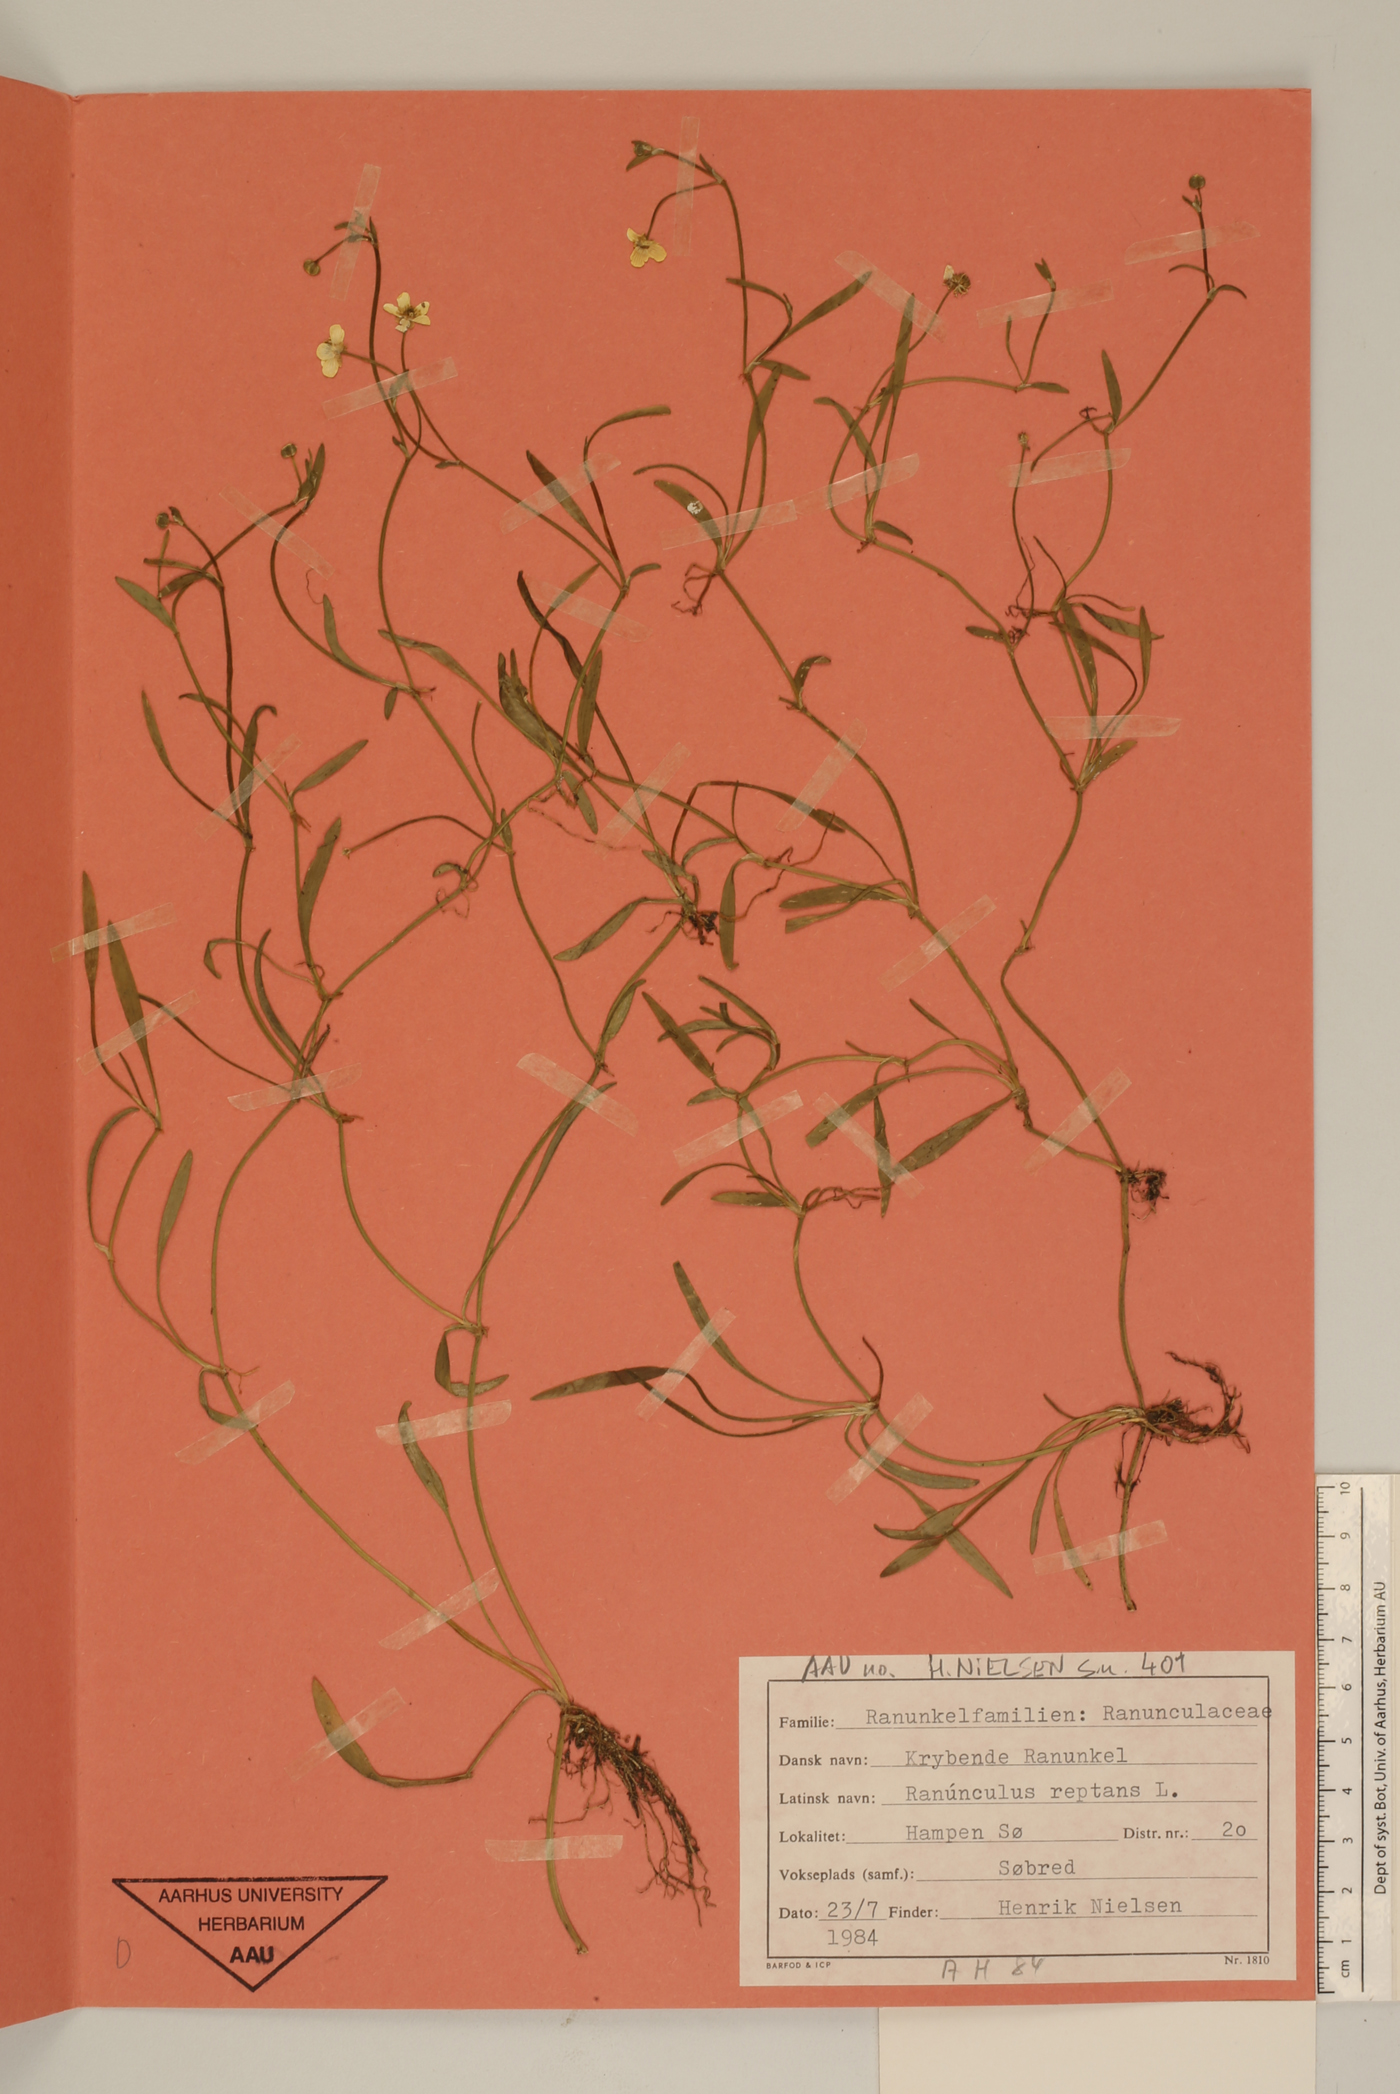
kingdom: Plantae
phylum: Tracheophyta
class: Magnoliopsida
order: Ranunculales
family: Ranunculaceae
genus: Ranunculus
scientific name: Ranunculus reptans
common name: Creeping spearwort
